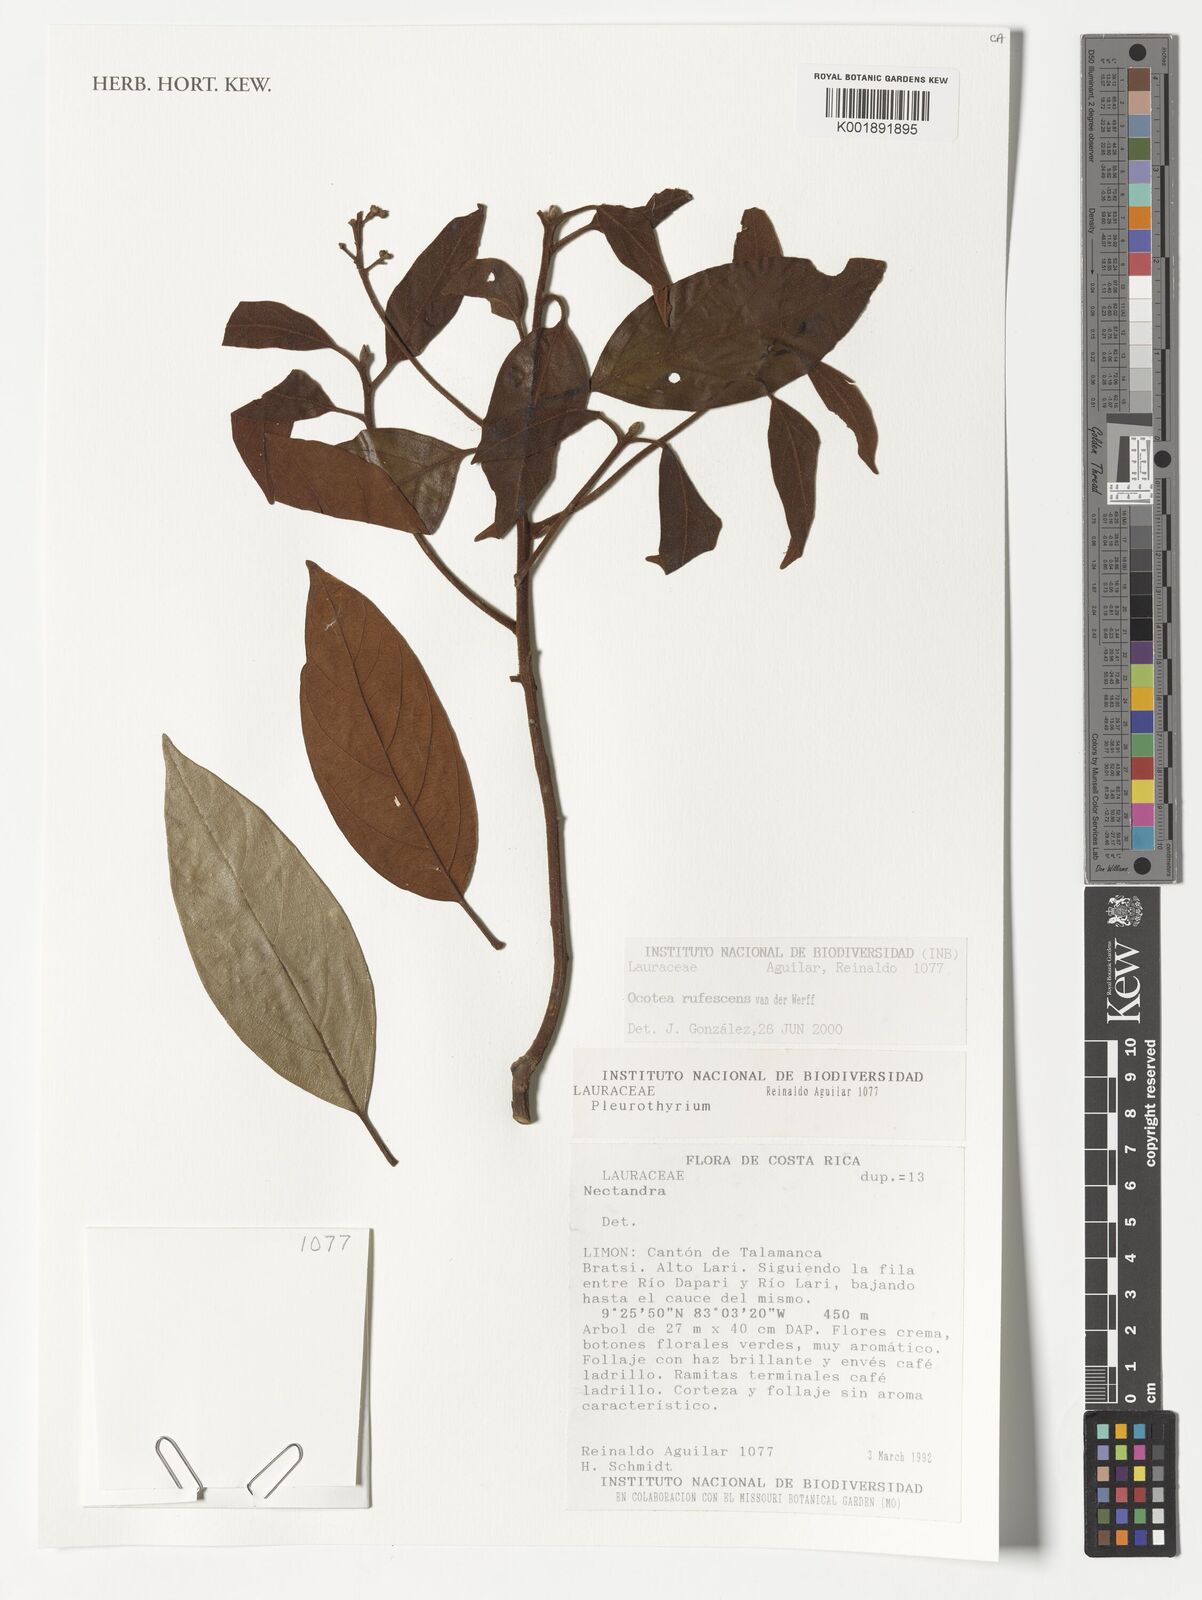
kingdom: Plantae
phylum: Tracheophyta
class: Magnoliopsida
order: Laurales
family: Lauraceae
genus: Pleurothyrium
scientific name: Pleurothyrium
